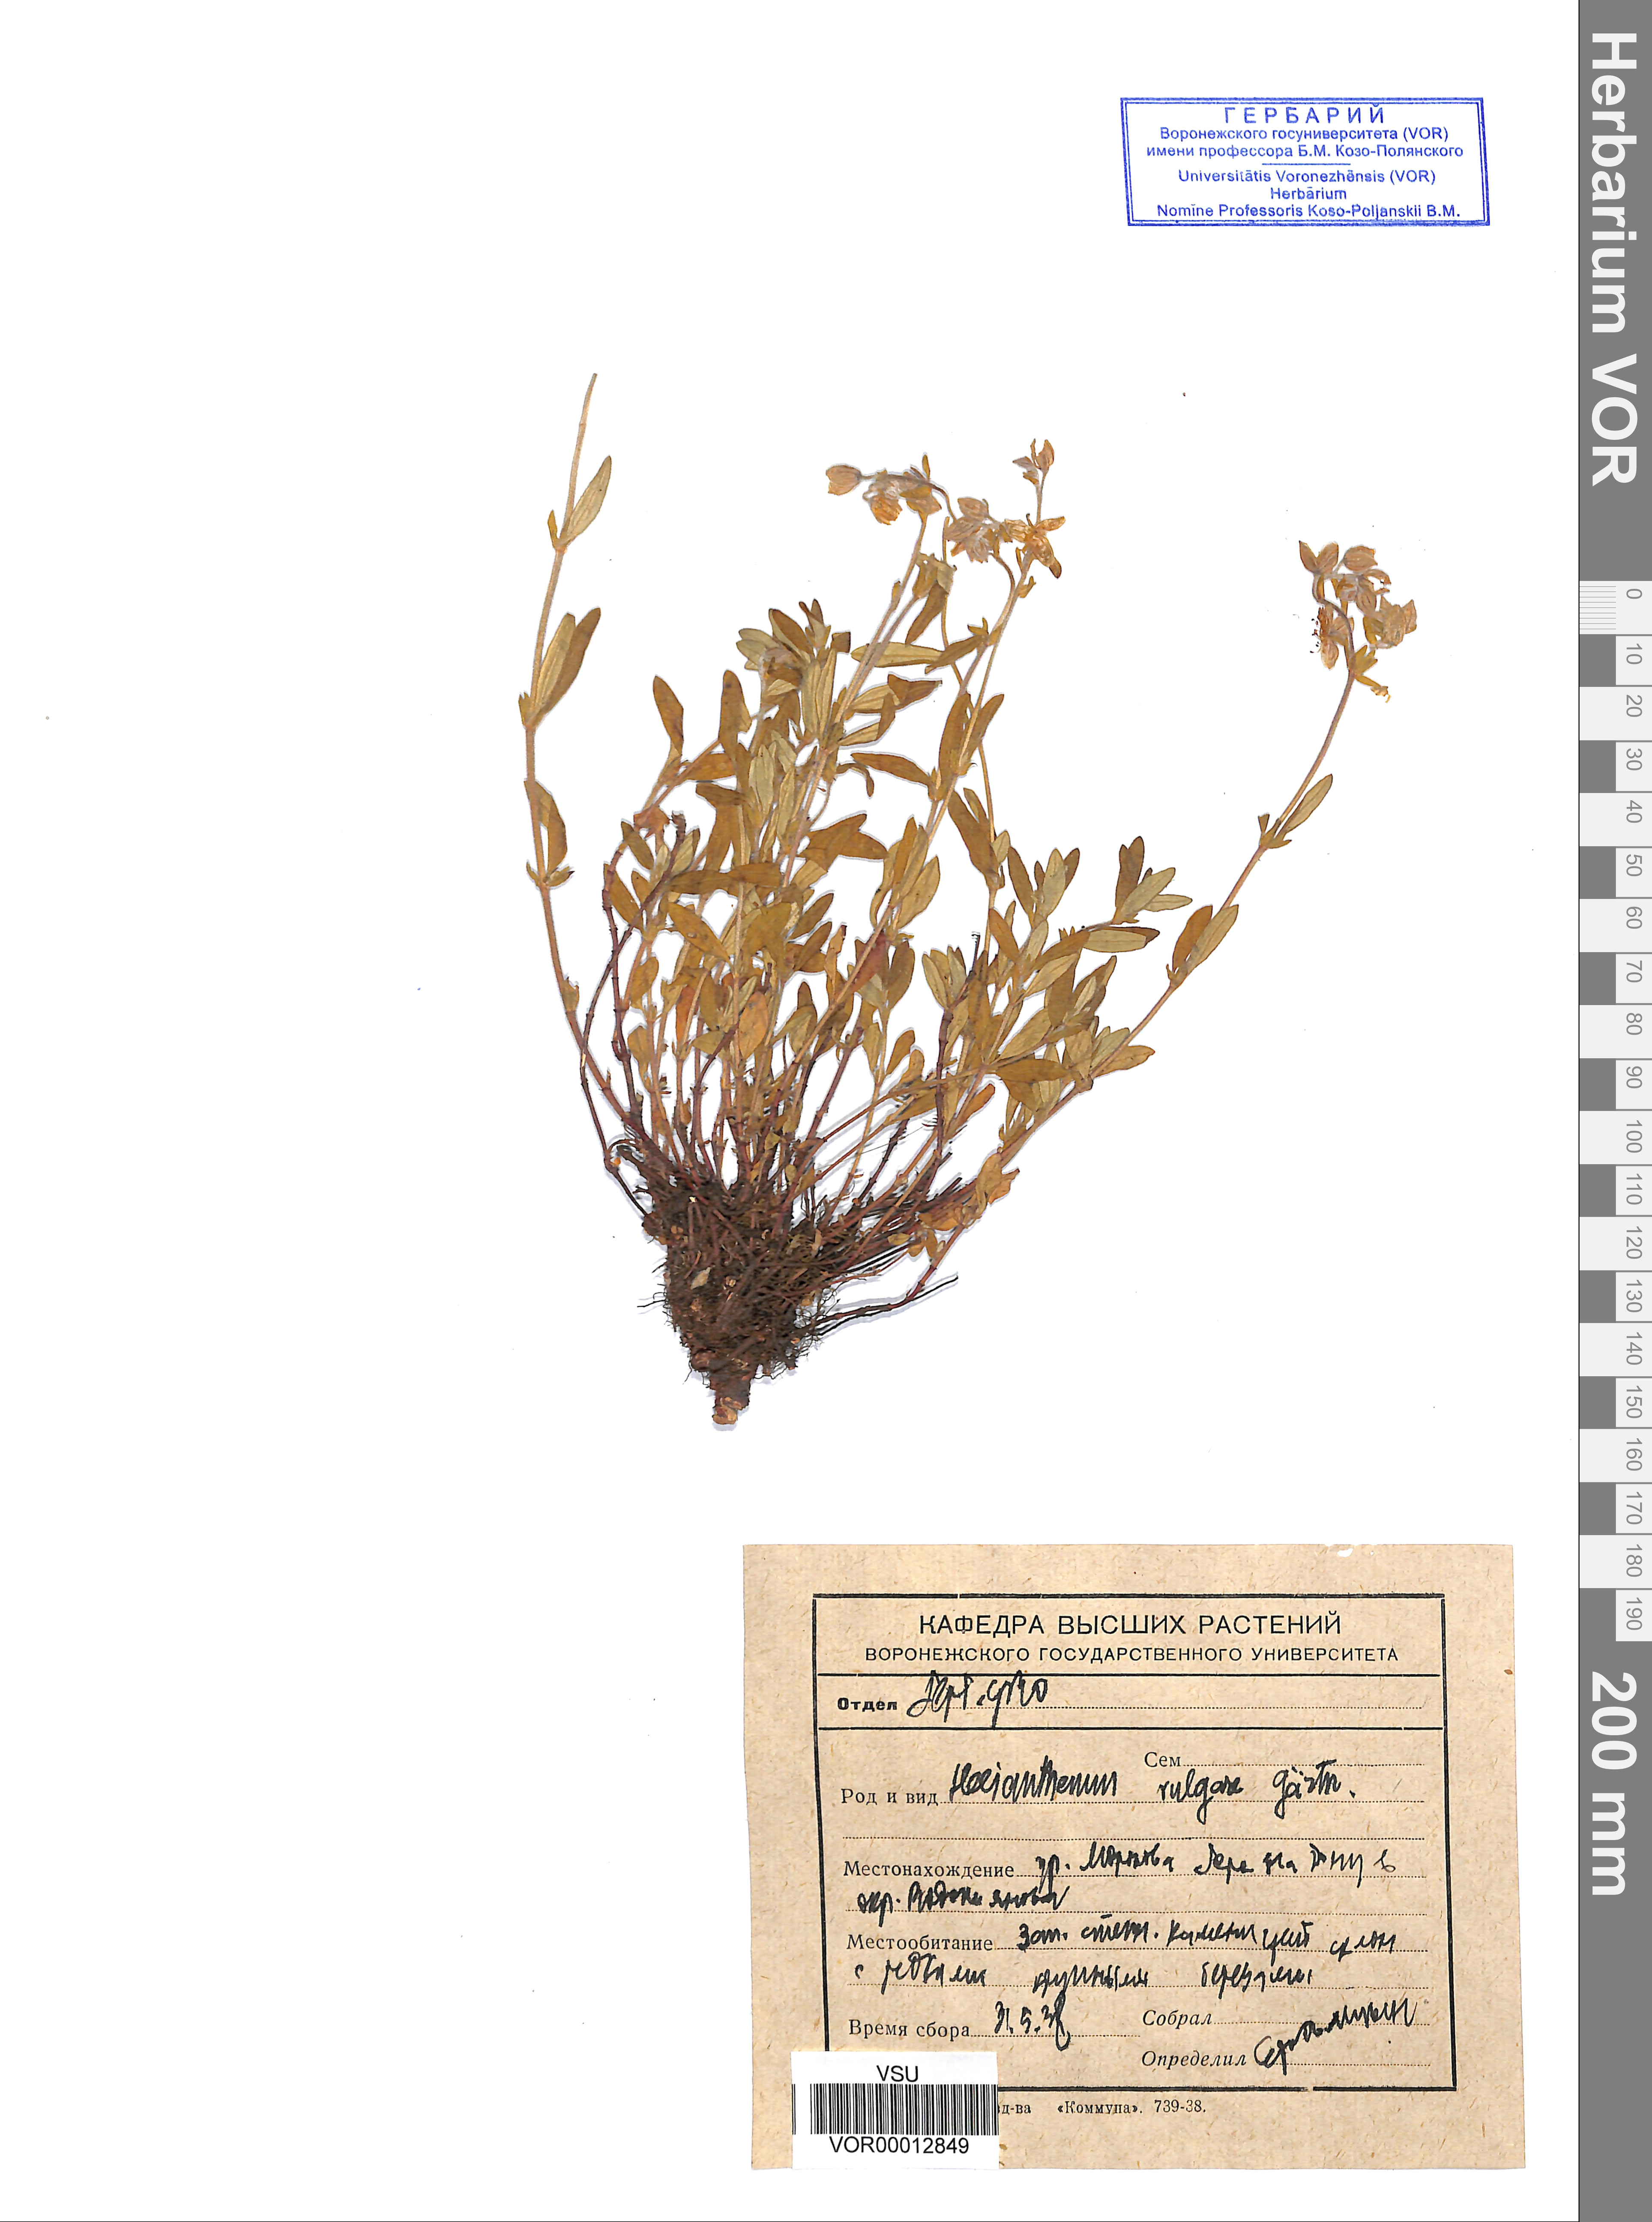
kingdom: Plantae
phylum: Tracheophyta
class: Magnoliopsida
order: Malvales
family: Cistaceae
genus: Helianthemum
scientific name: Helianthemum nummularium
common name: Common rock-rose
